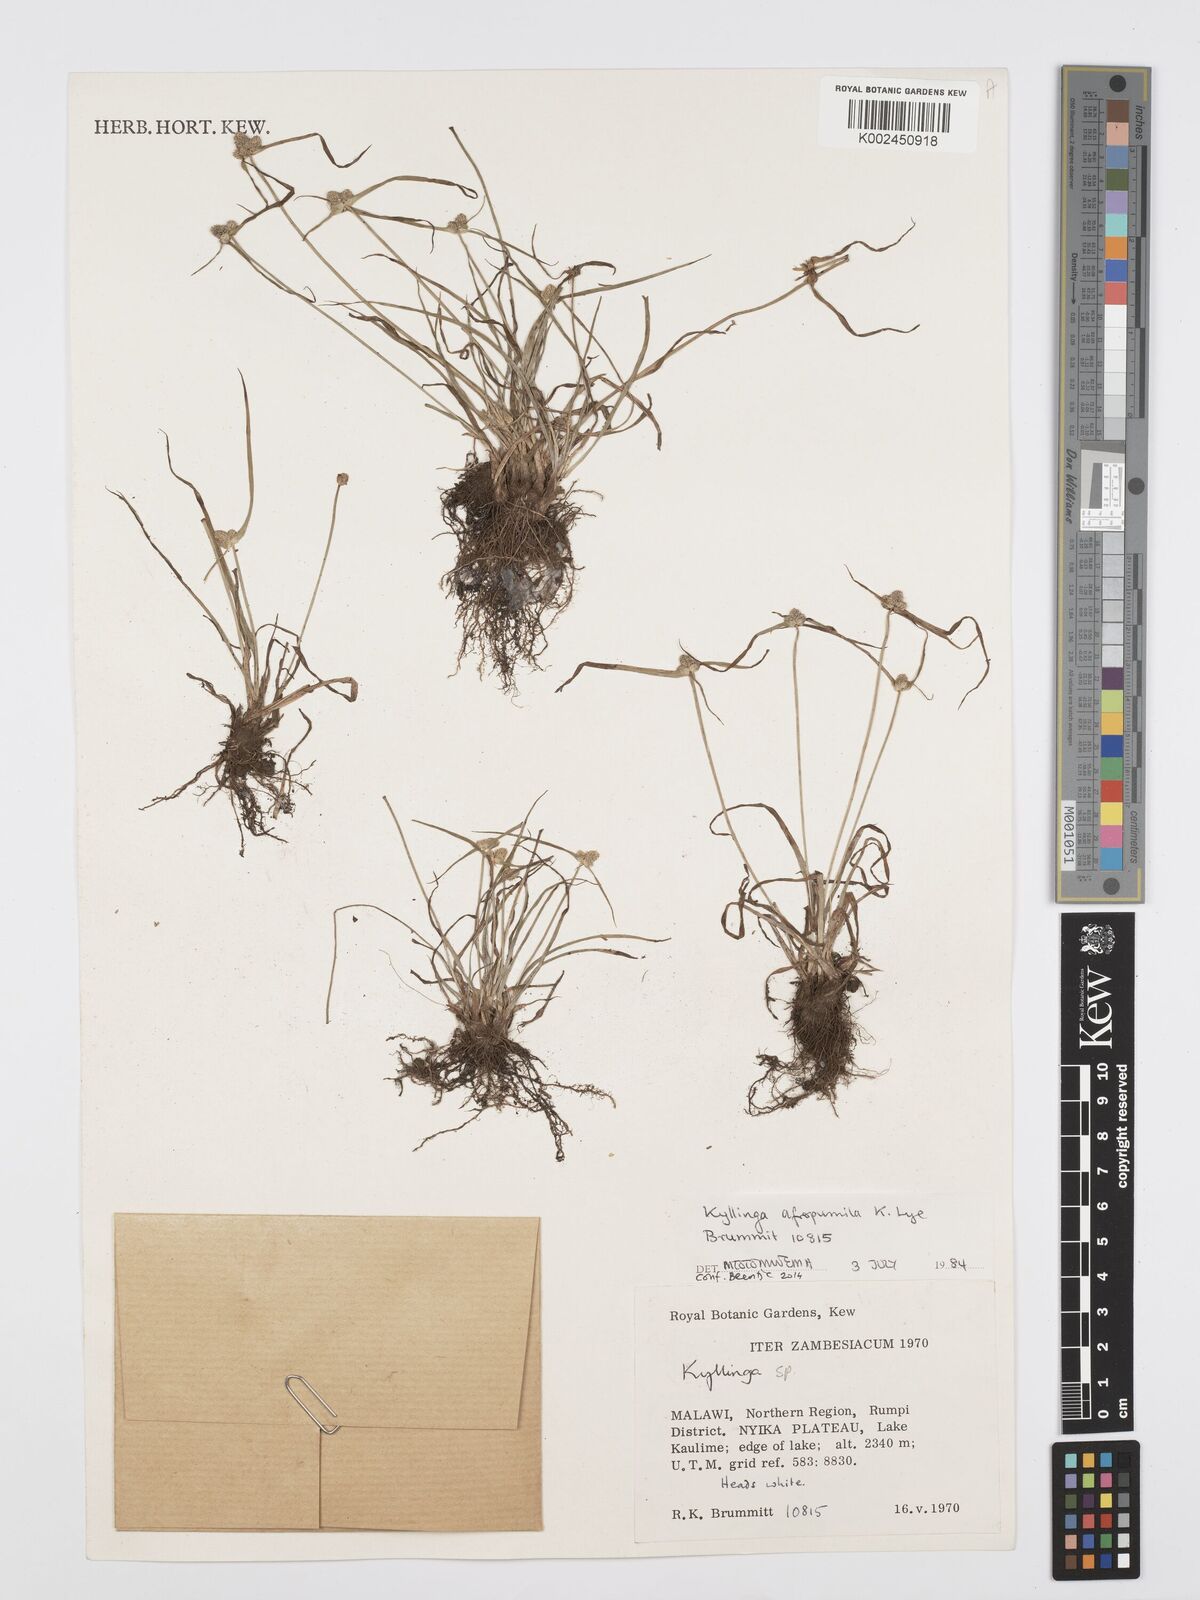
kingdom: Plantae
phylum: Tracheophyta
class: Liliopsida
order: Poales
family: Cyperaceae
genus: Cyperus
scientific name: Cyperus afropumilus
